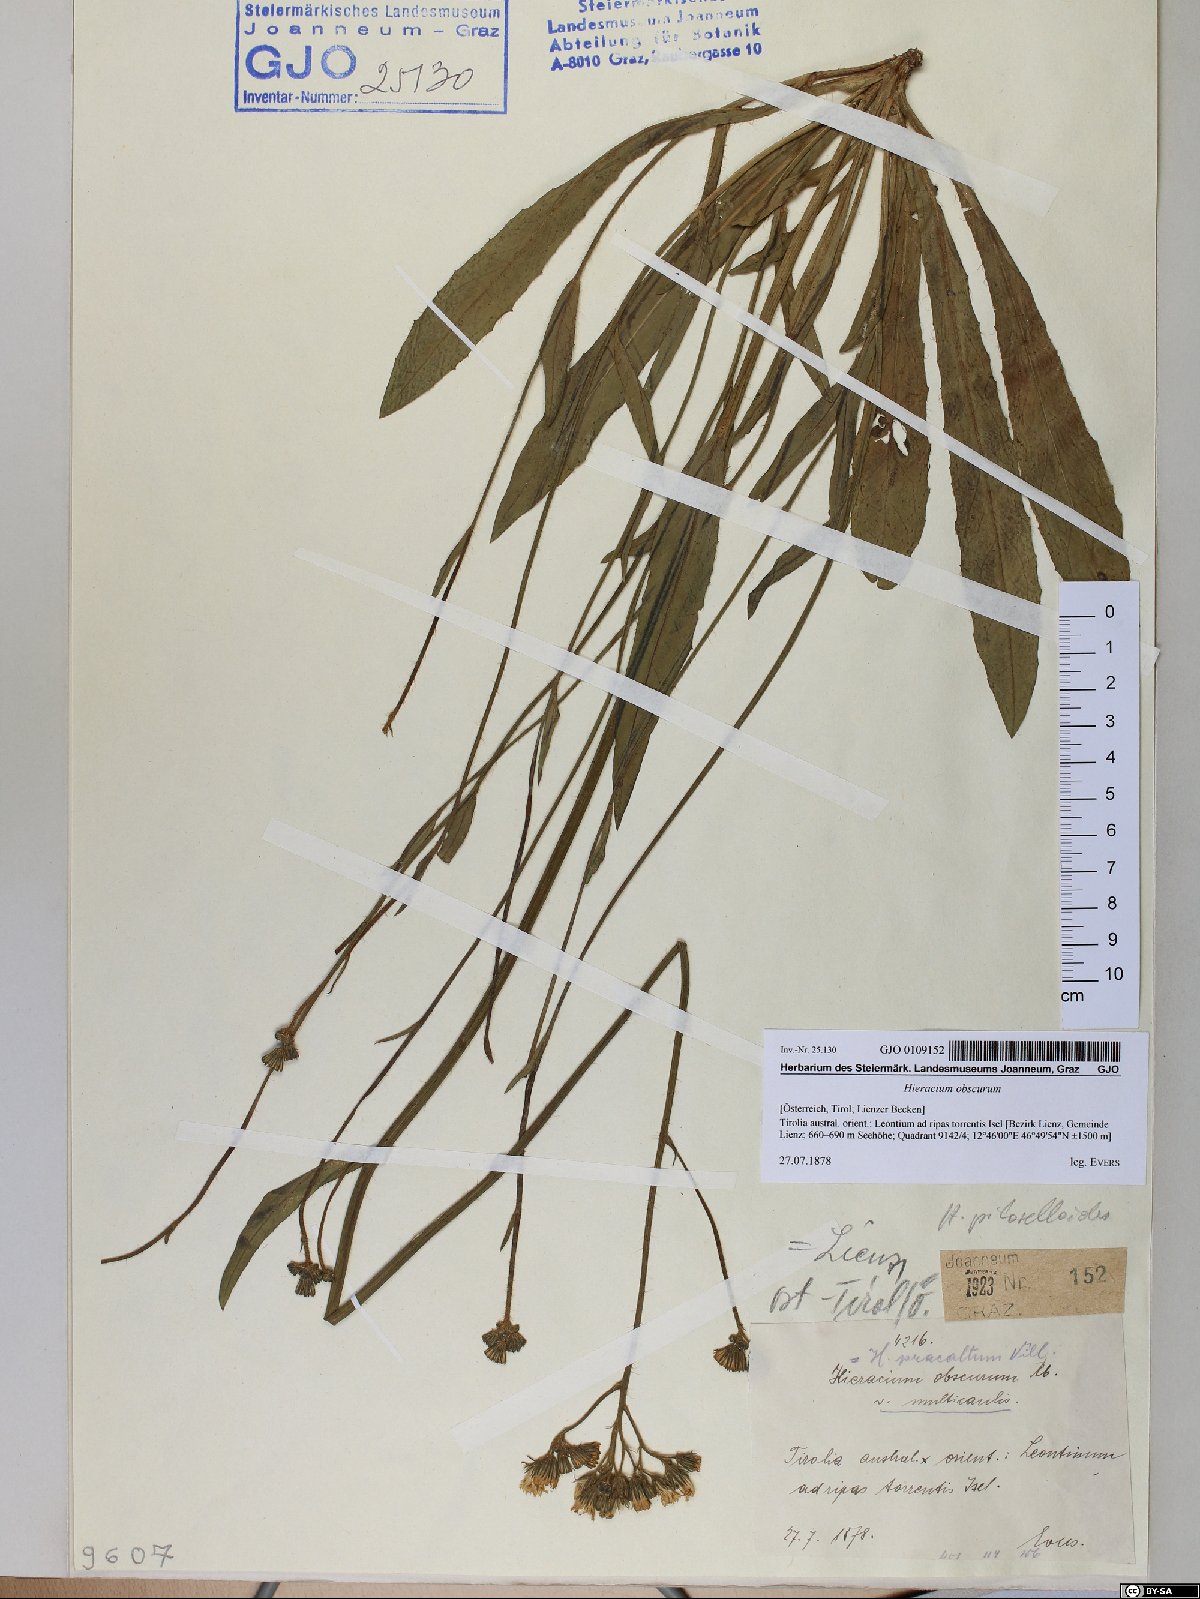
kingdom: Plantae
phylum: Tracheophyta
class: Magnoliopsida
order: Asterales
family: Asteraceae
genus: Pilosella
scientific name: Pilosella piloselloides
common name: Glaucous king-devil
